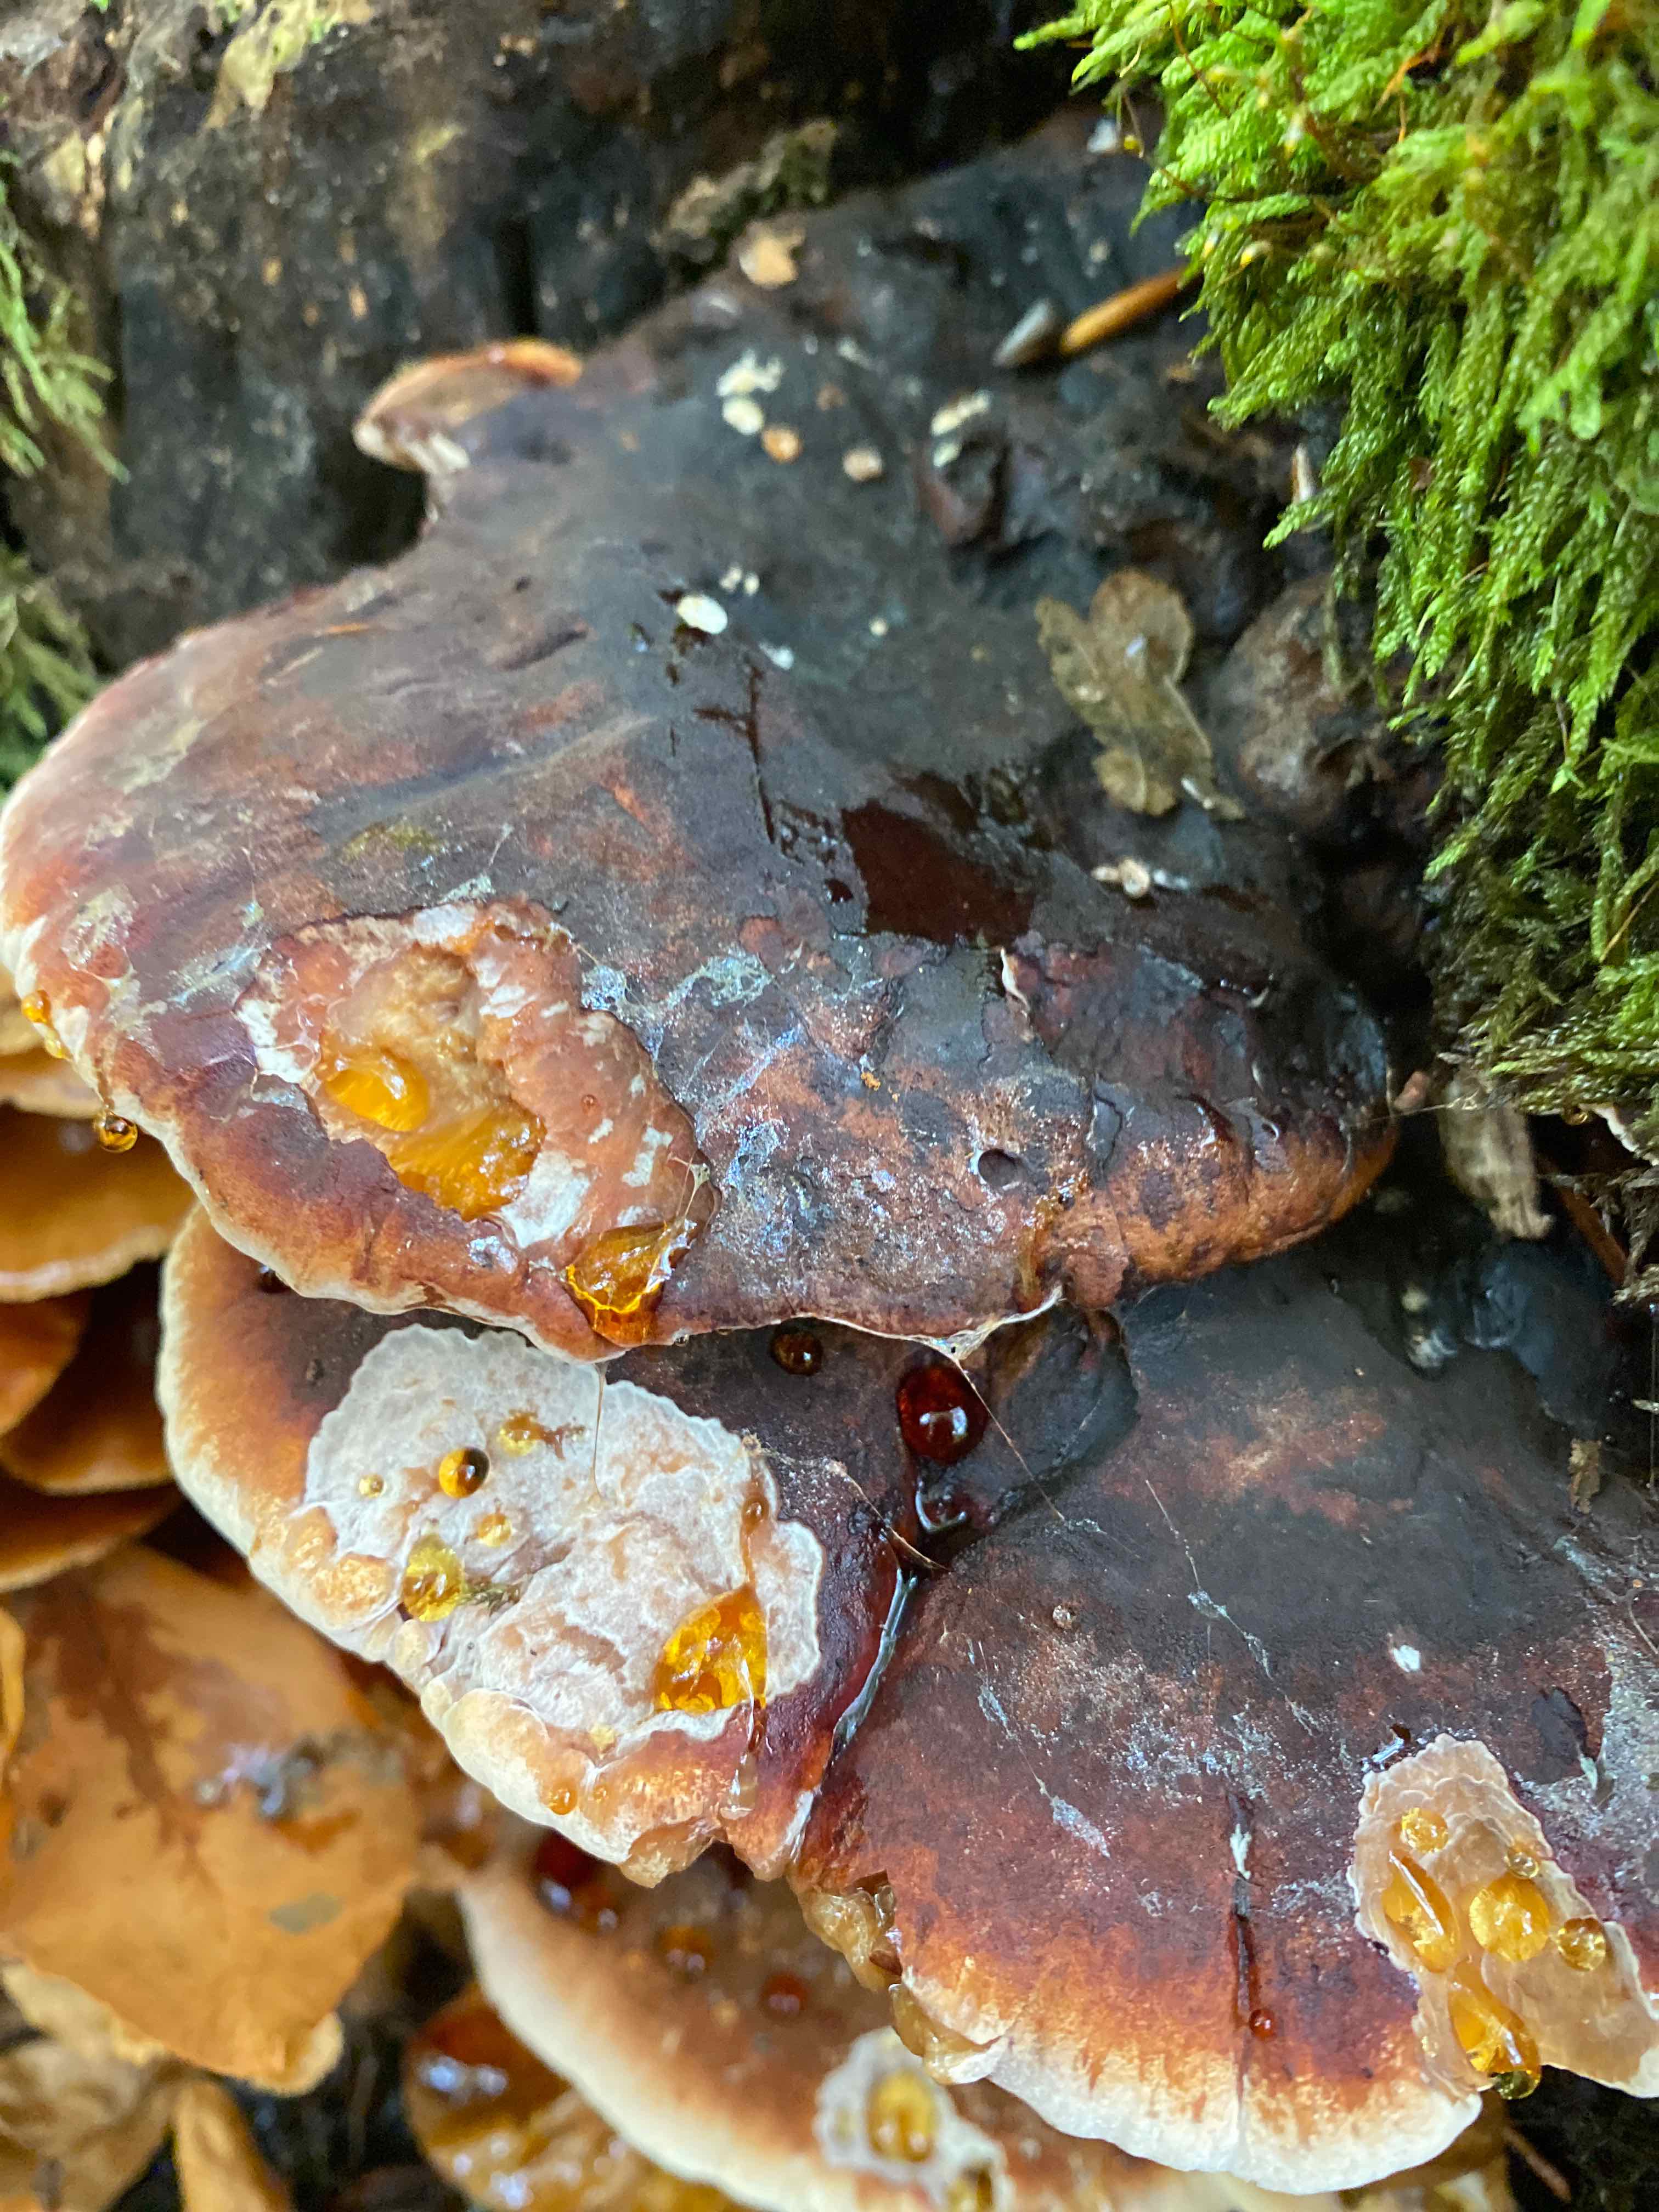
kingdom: Fungi
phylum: Basidiomycota
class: Agaricomycetes
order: Polyporales
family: Ischnodermataceae
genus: Ischnoderma
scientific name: Ischnoderma resinosum
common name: løv-tjæreporesvamp
